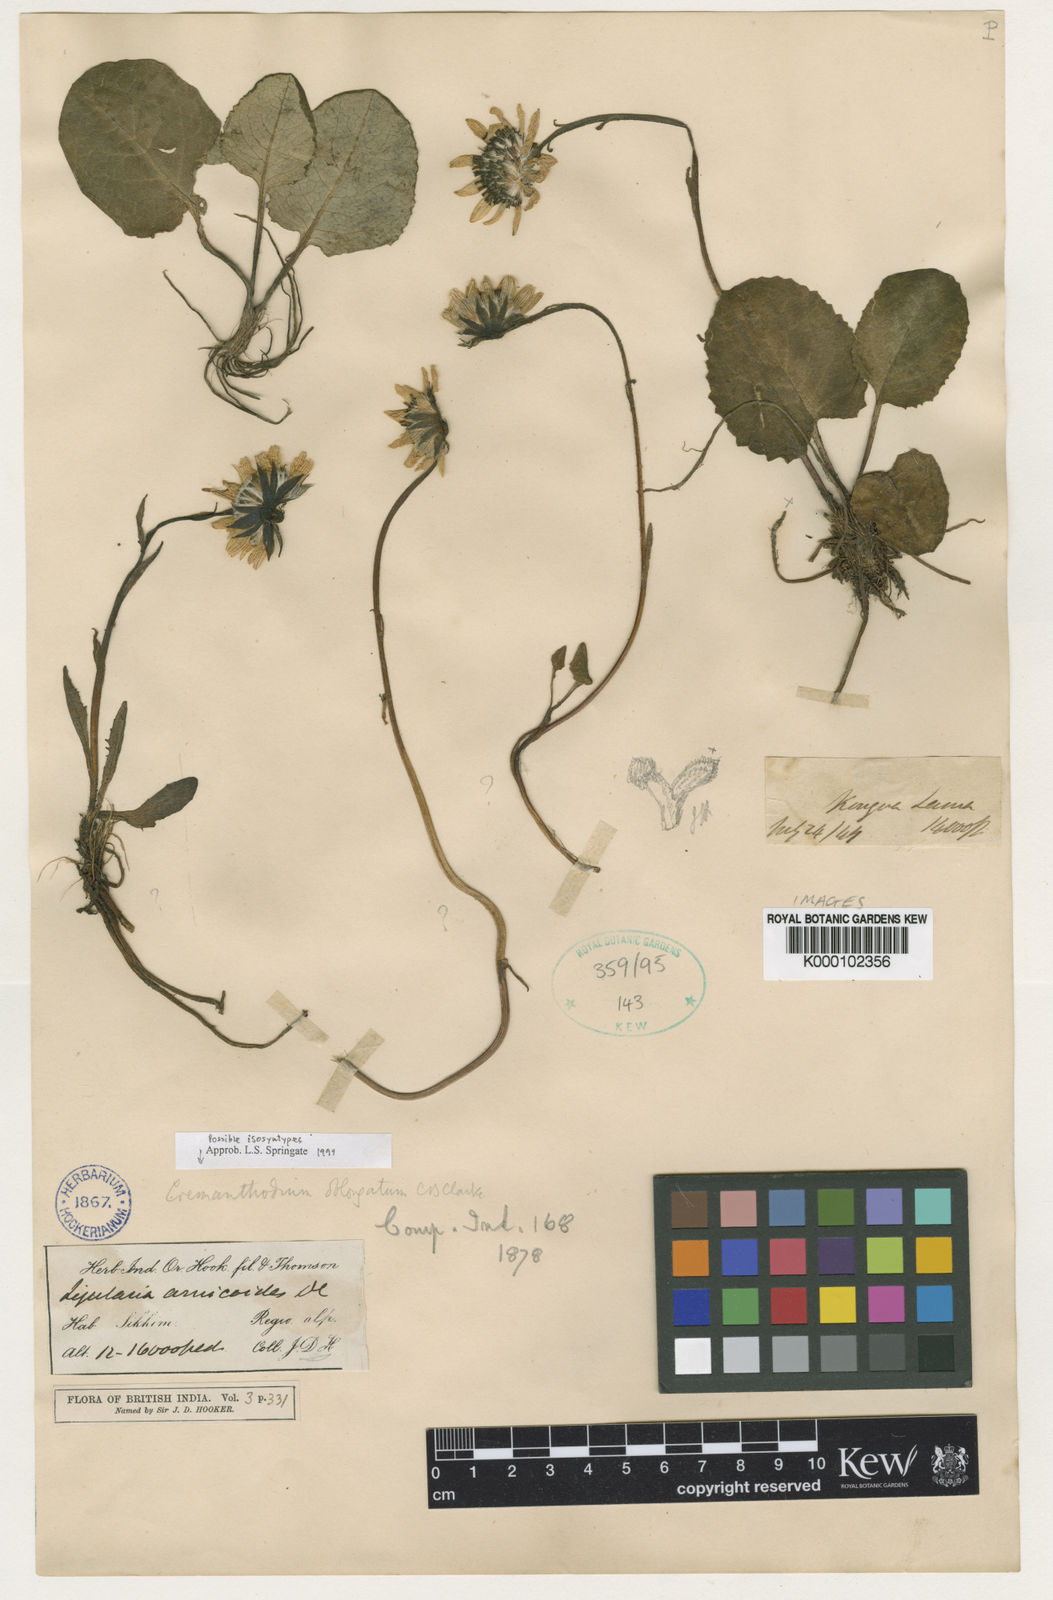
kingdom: Plantae
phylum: Tracheophyta
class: Magnoliopsida
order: Asterales
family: Asteraceae
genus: Cremanthodium
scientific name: Cremanthodium oblongatum
